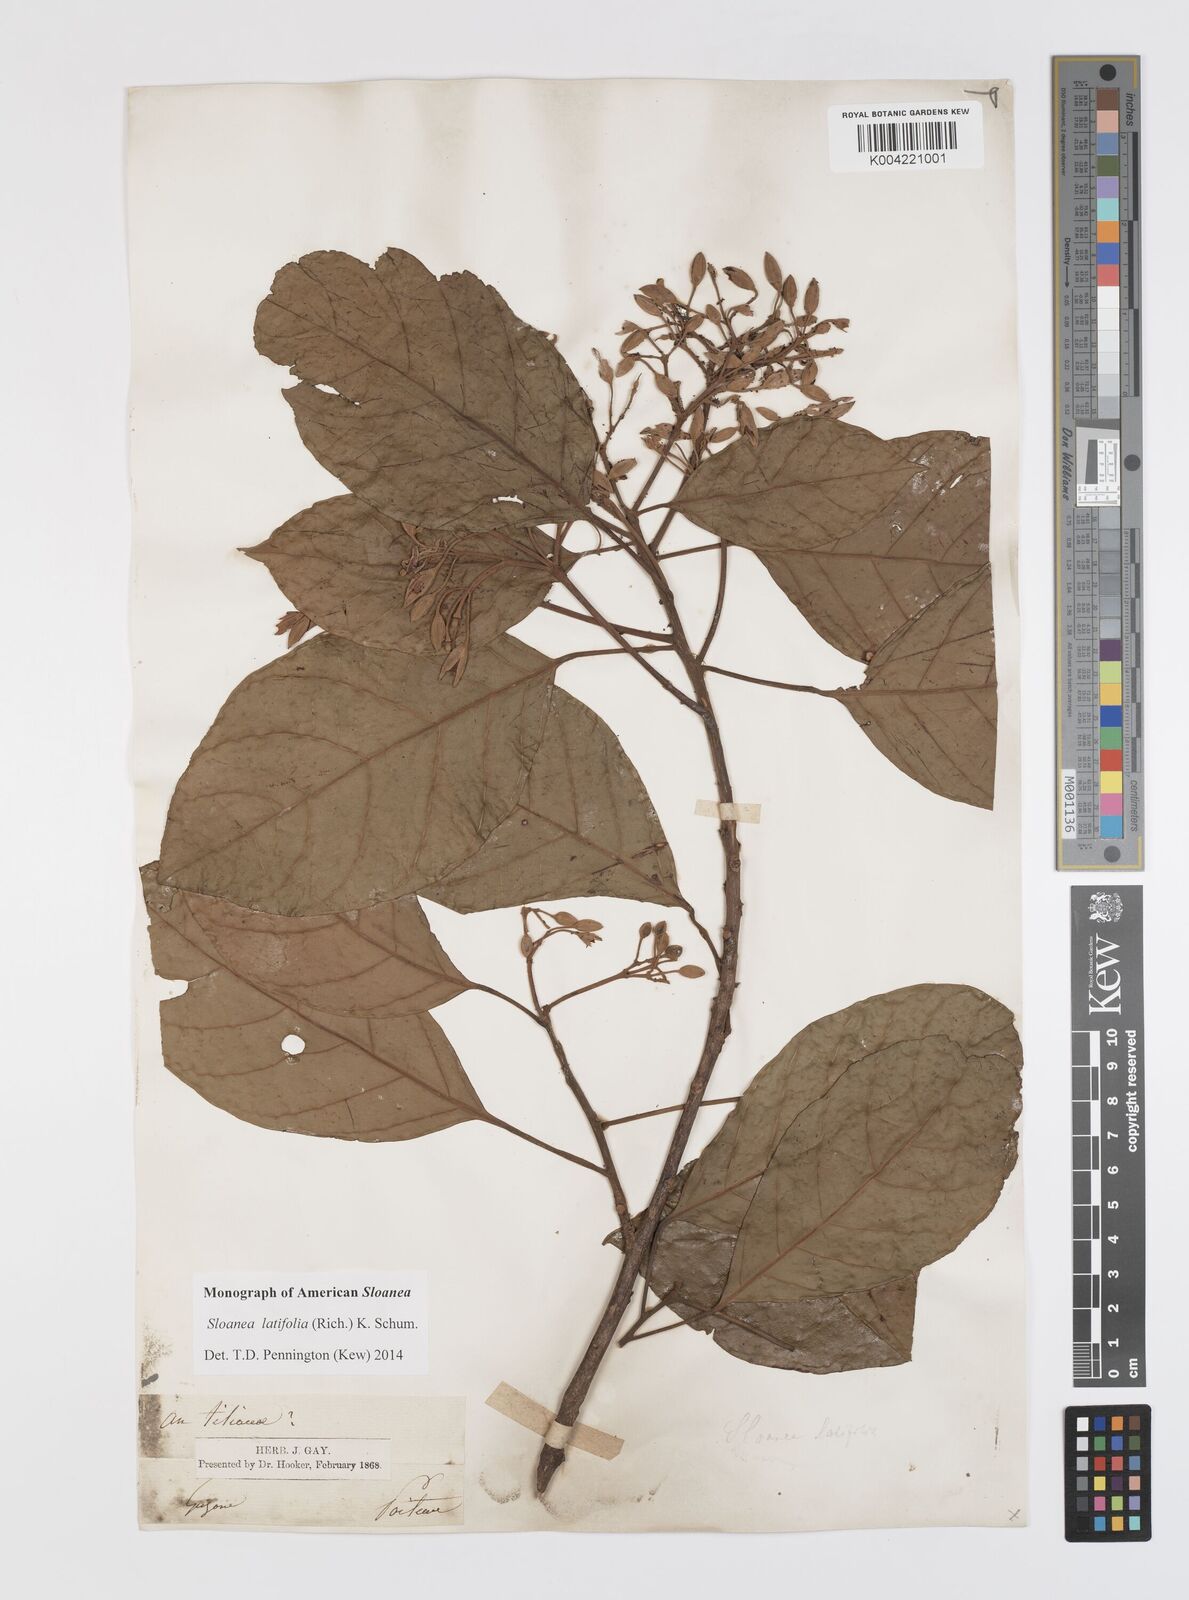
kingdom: Plantae
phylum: Tracheophyta
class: Magnoliopsida
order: Oxalidales
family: Elaeocarpaceae
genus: Sloanea
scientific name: Sloanea latifolia
